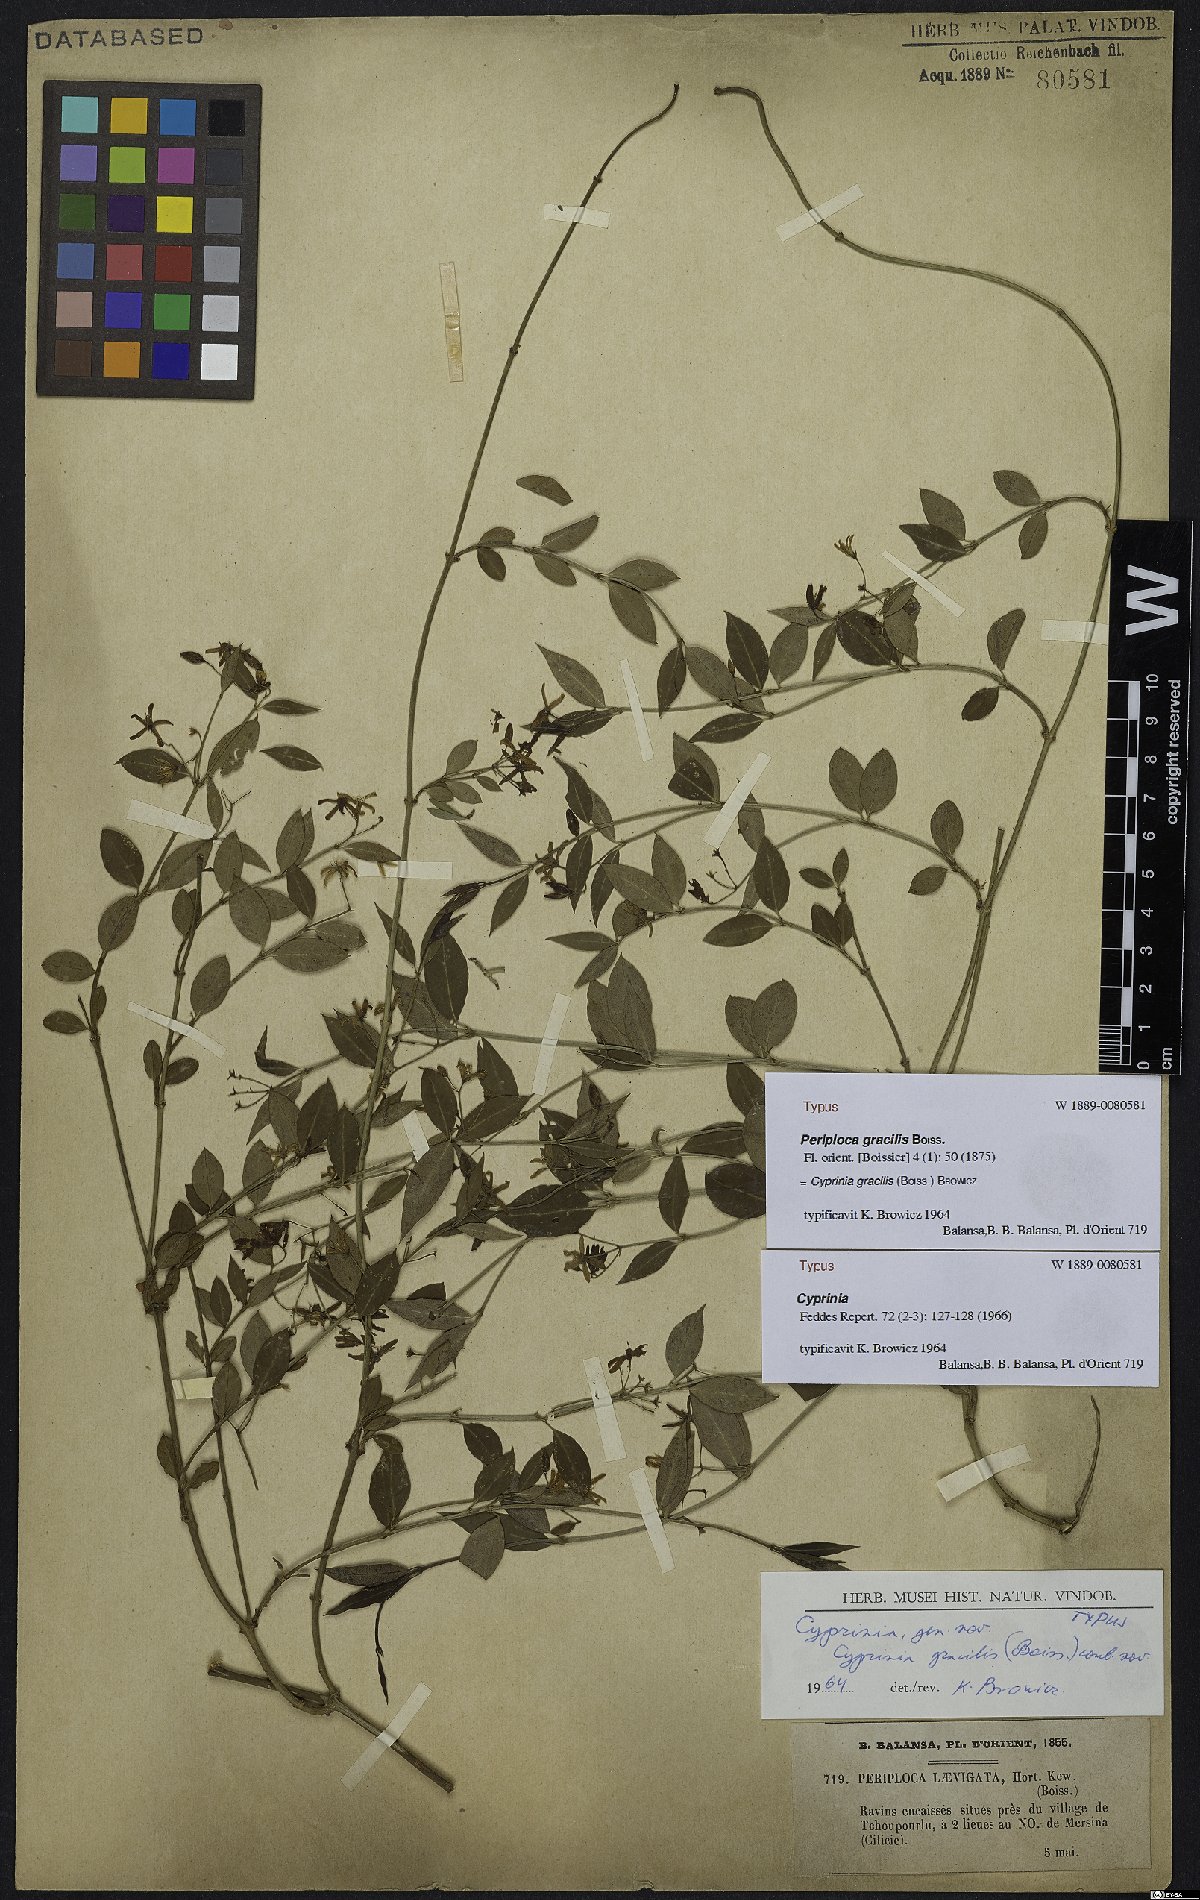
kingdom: Plantae
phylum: Tracheophyta
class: Magnoliopsida
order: Gentianales
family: Apocynaceae
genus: Periploca
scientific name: Periploca gracilis
